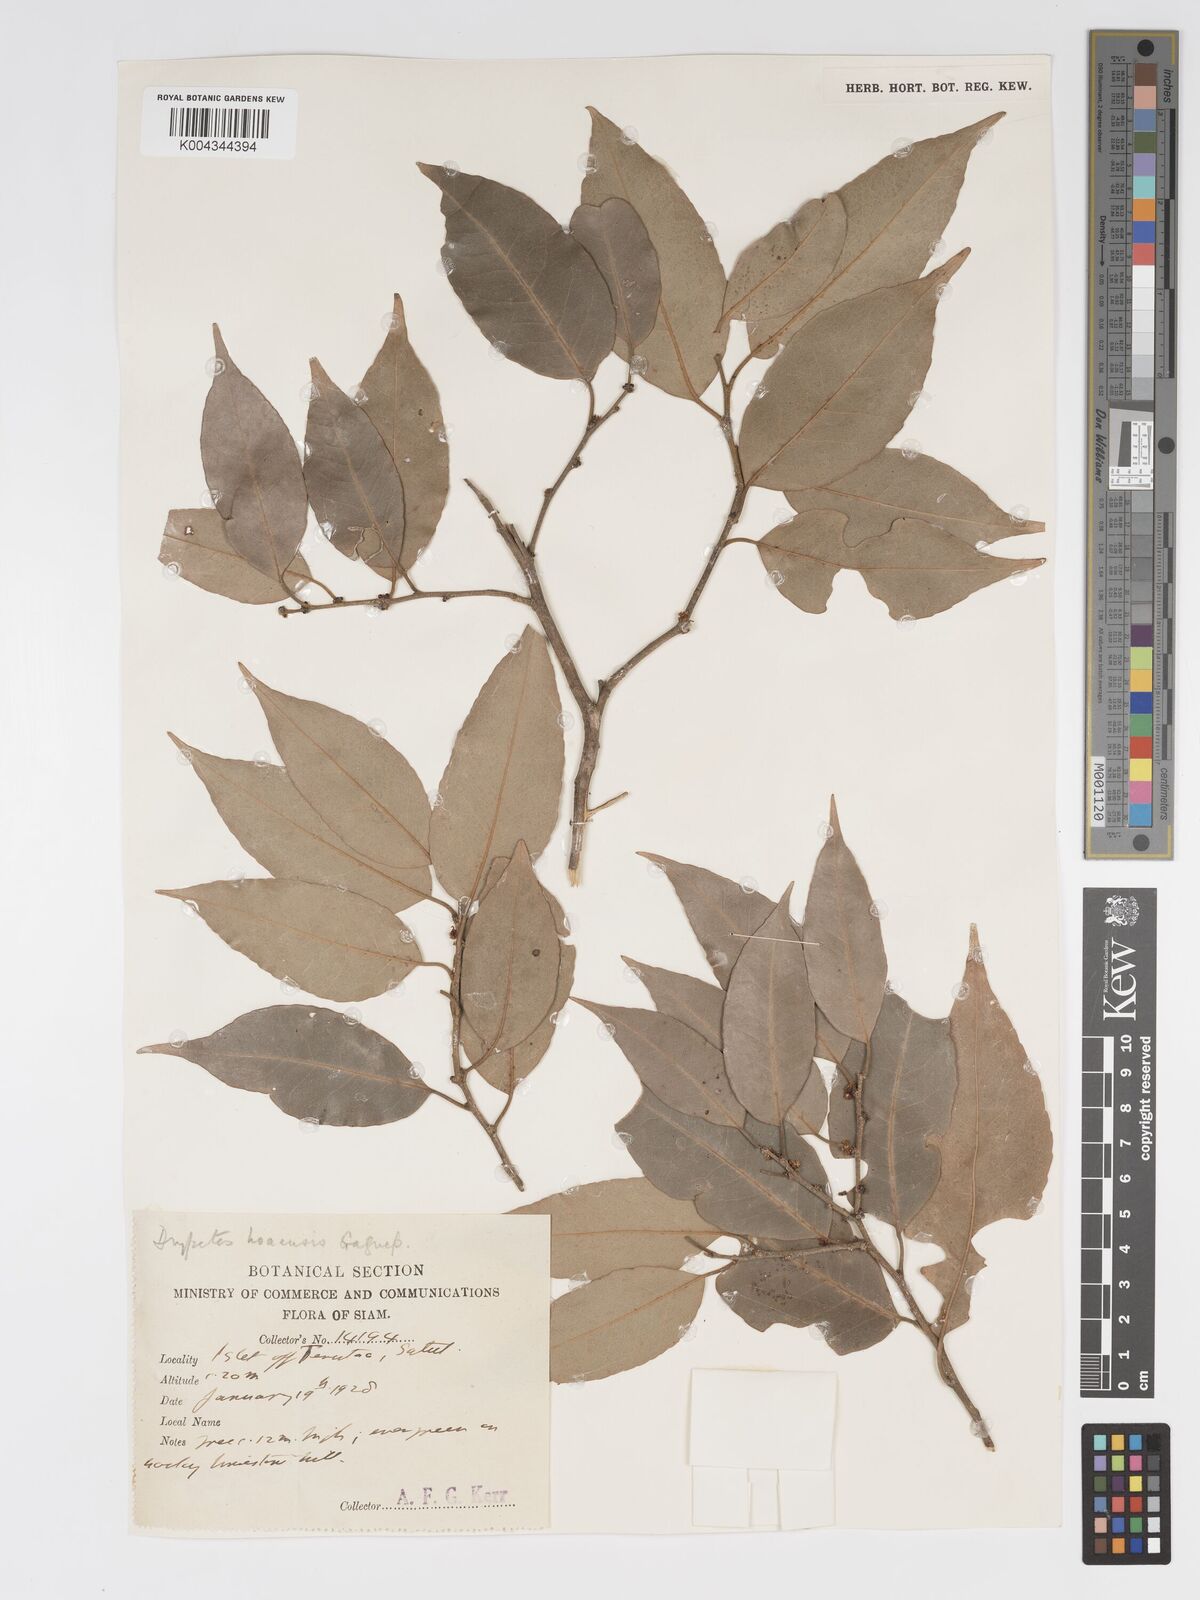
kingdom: Plantae
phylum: Tracheophyta
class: Magnoliopsida
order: Malpighiales
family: Putranjivaceae
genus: Drypetes
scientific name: Drypetes hoaensis
